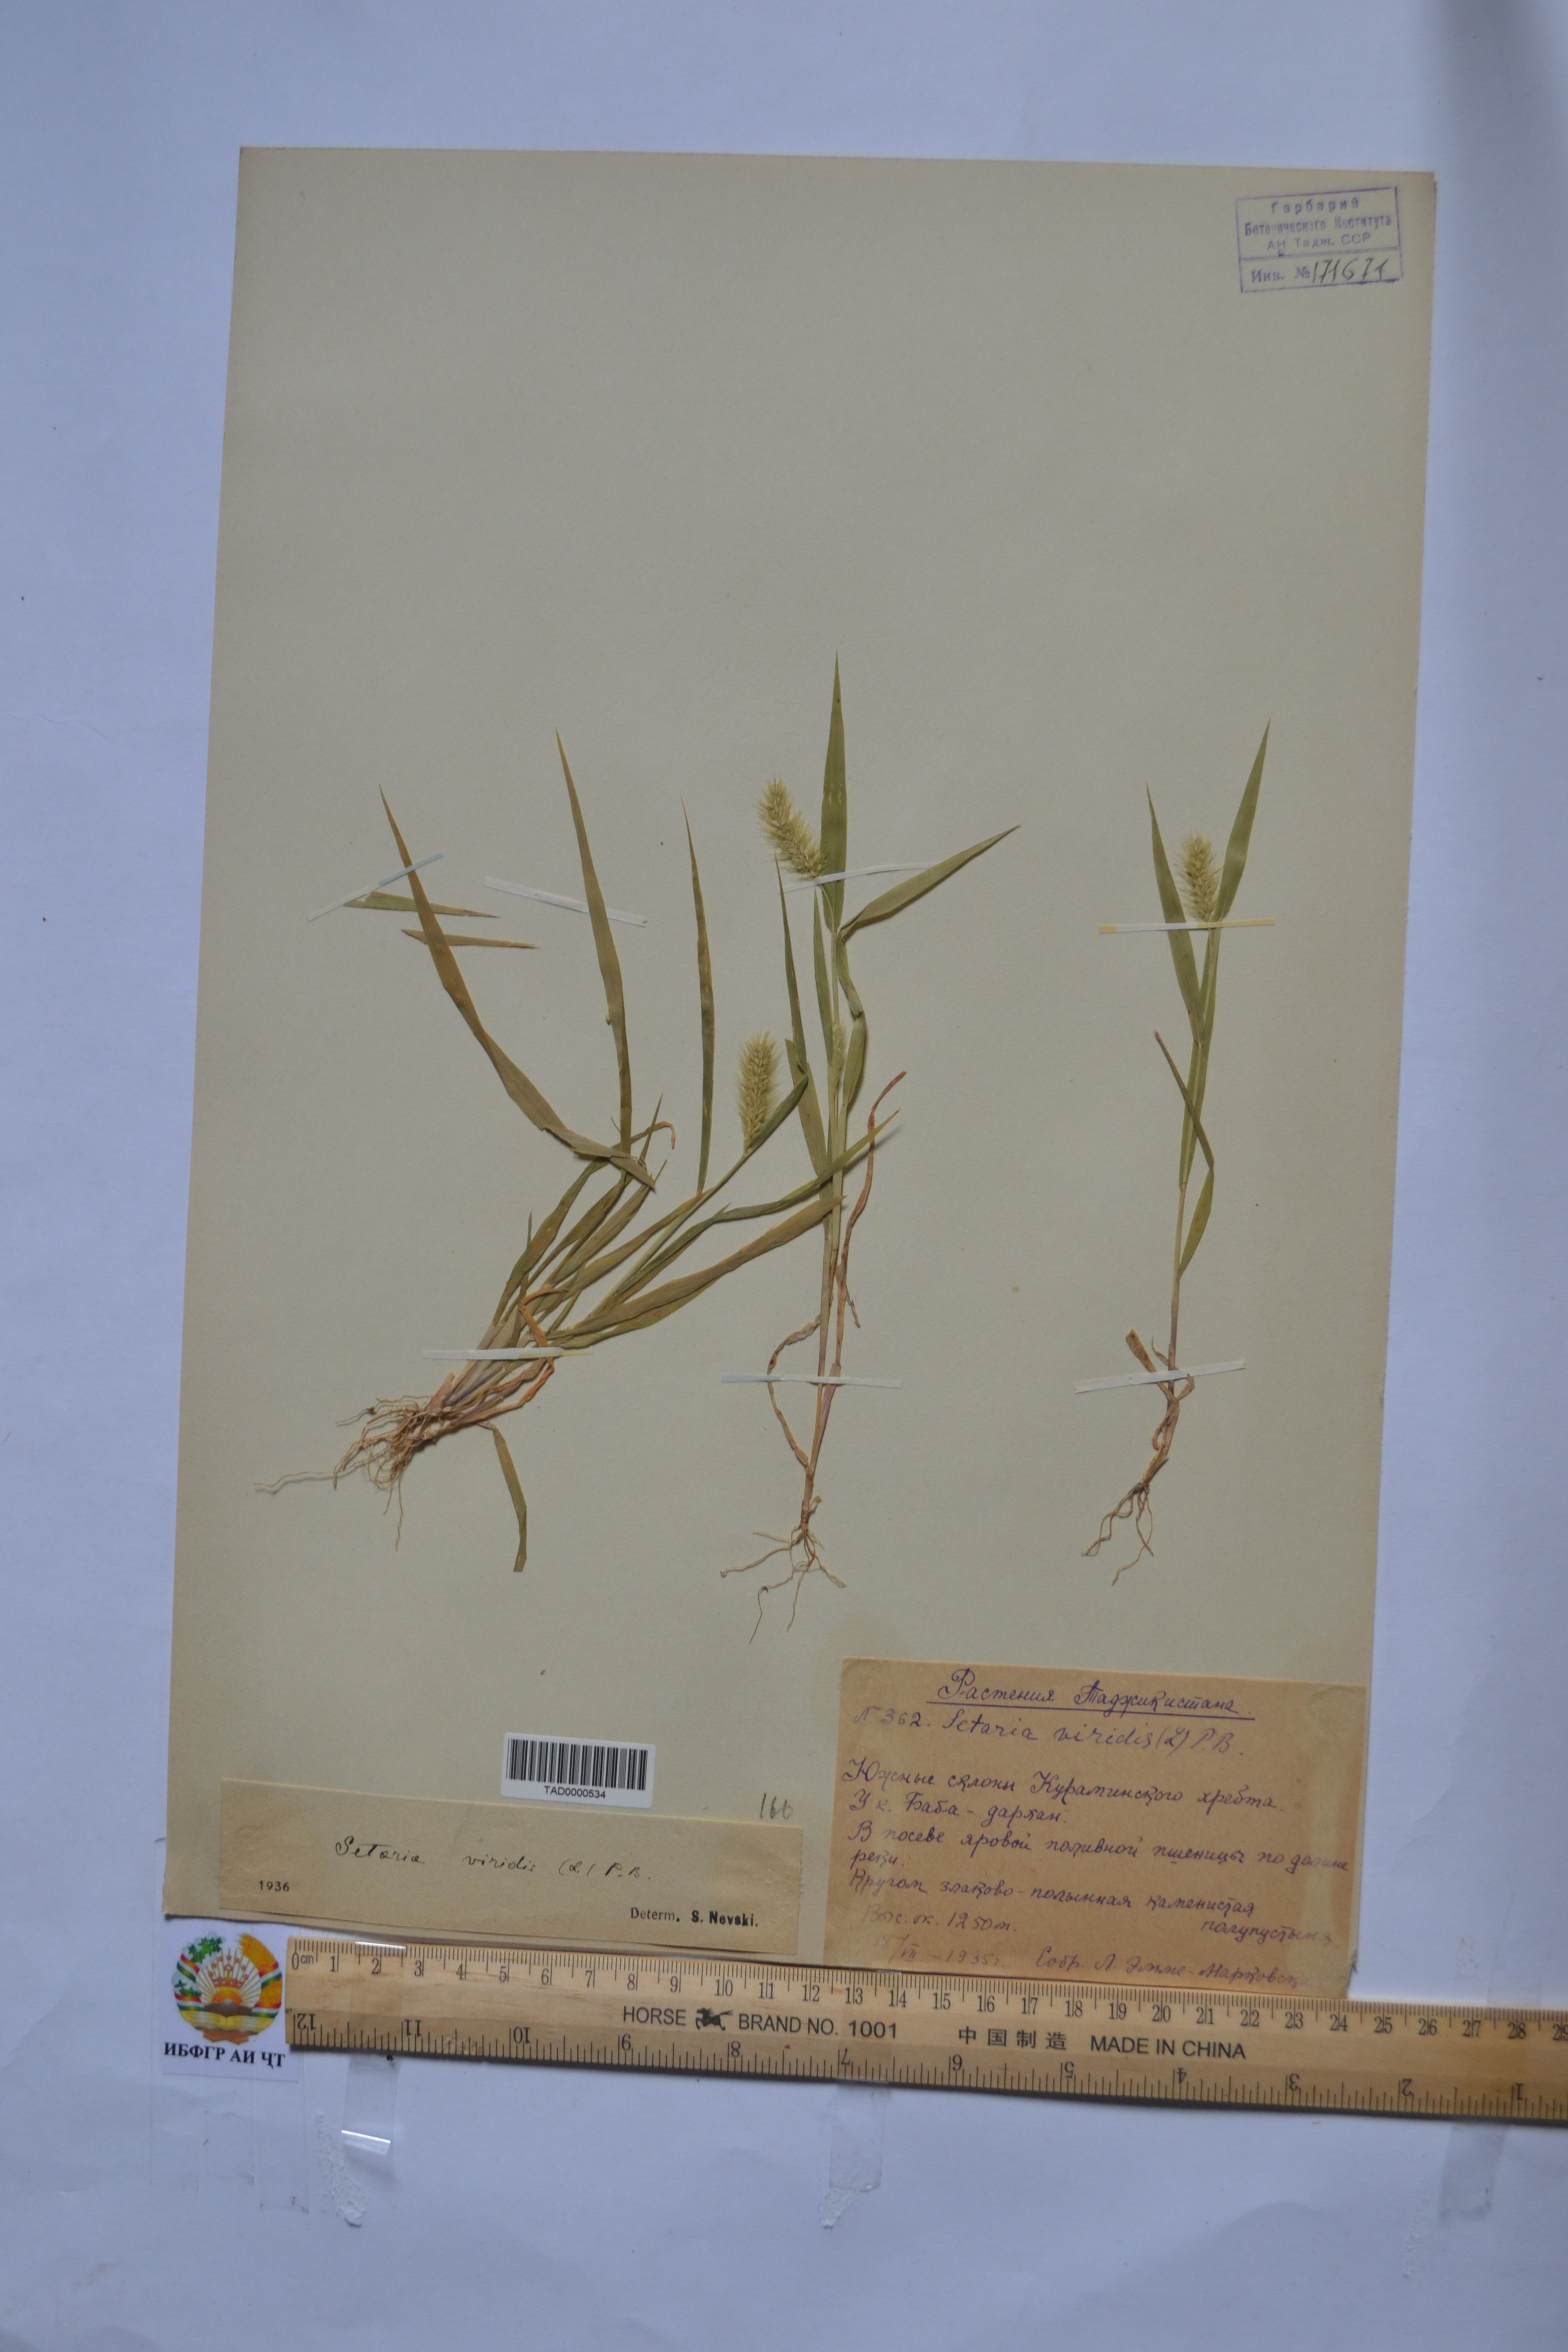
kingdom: Plantae
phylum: Tracheophyta
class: Liliopsida
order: Poales
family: Poaceae
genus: Setaria
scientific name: Setaria viridis
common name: Green bristlegrass
